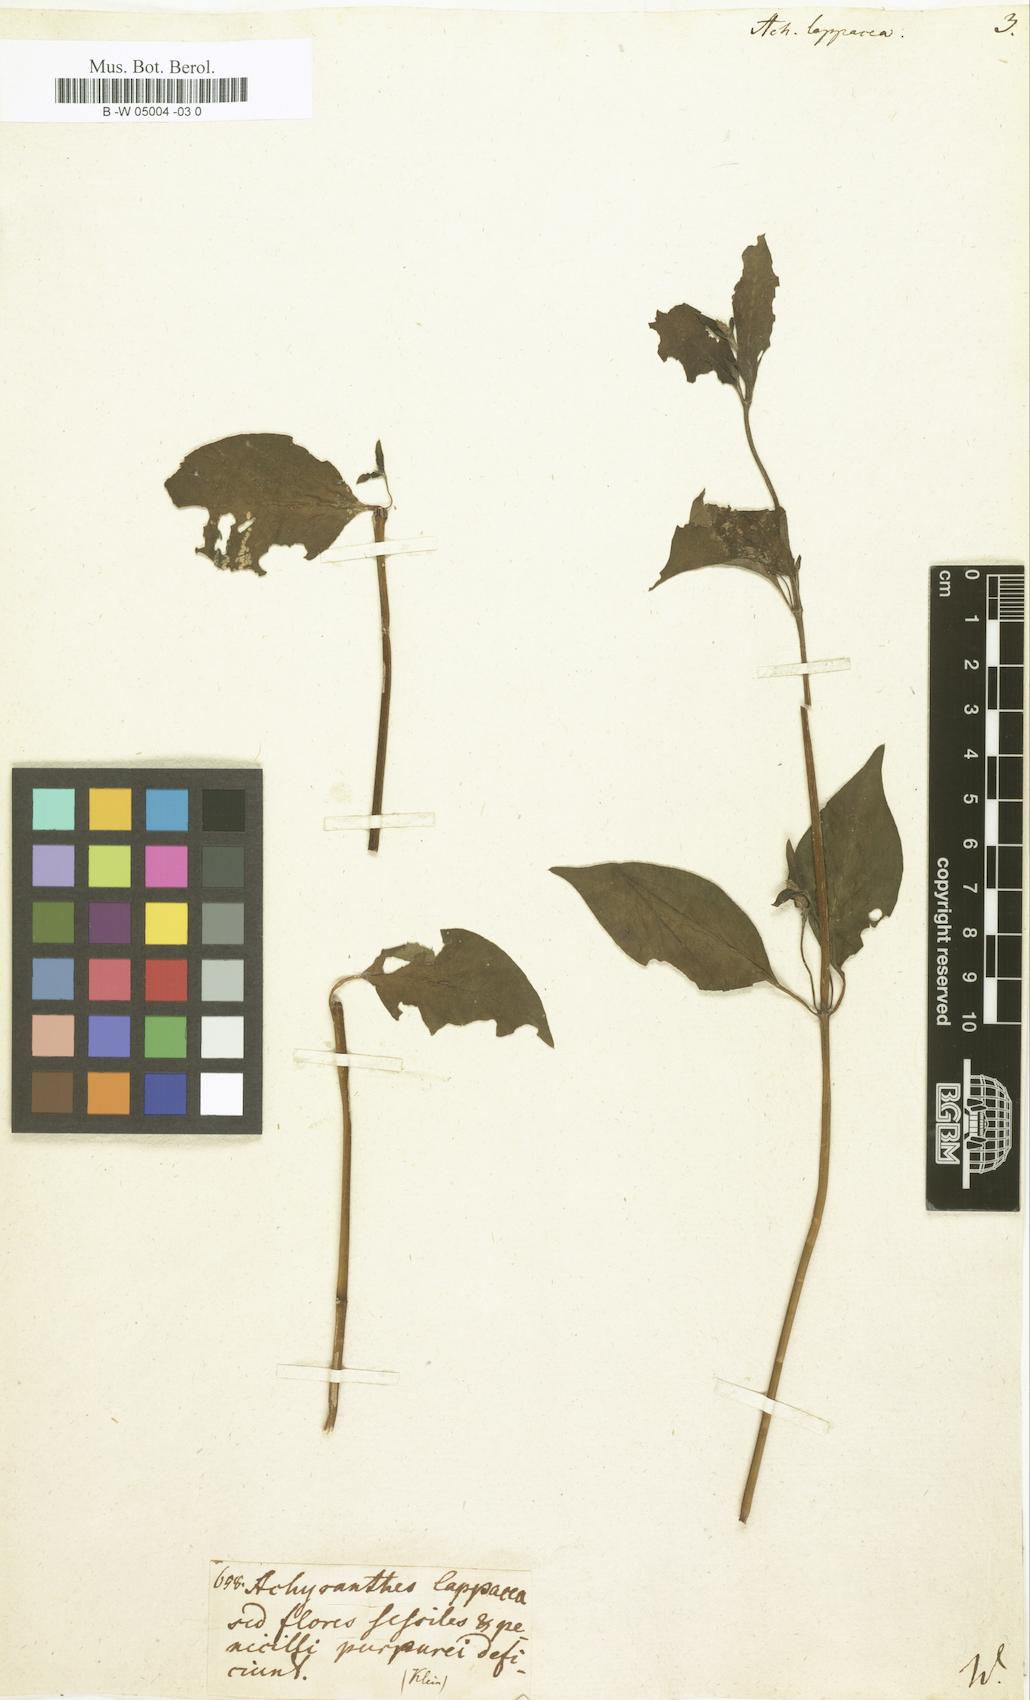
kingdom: Plantae
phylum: Tracheophyta
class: Magnoliopsida
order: Caryophyllales
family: Amaranthaceae
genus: Pupalia
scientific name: Pupalia lappacea
